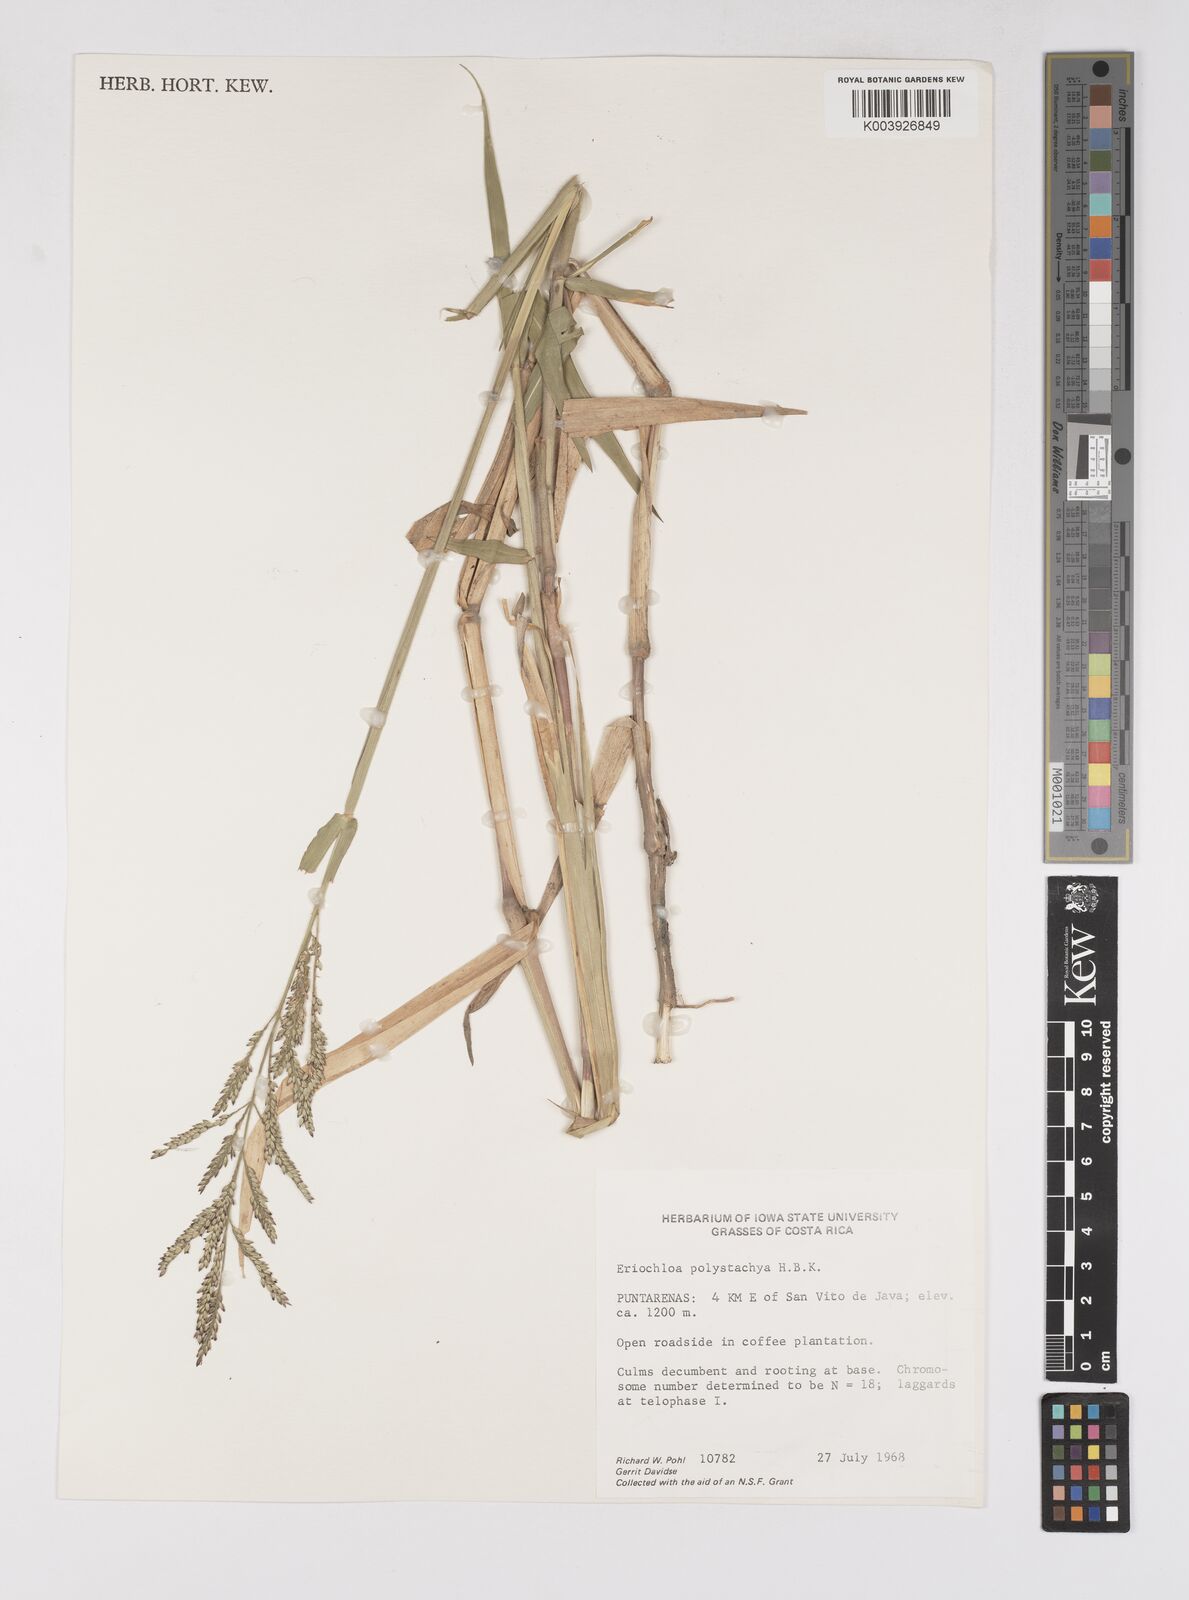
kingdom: Plantae
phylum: Tracheophyta
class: Liliopsida
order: Poales
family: Poaceae
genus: Urochloa
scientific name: Urochloa polystachya
